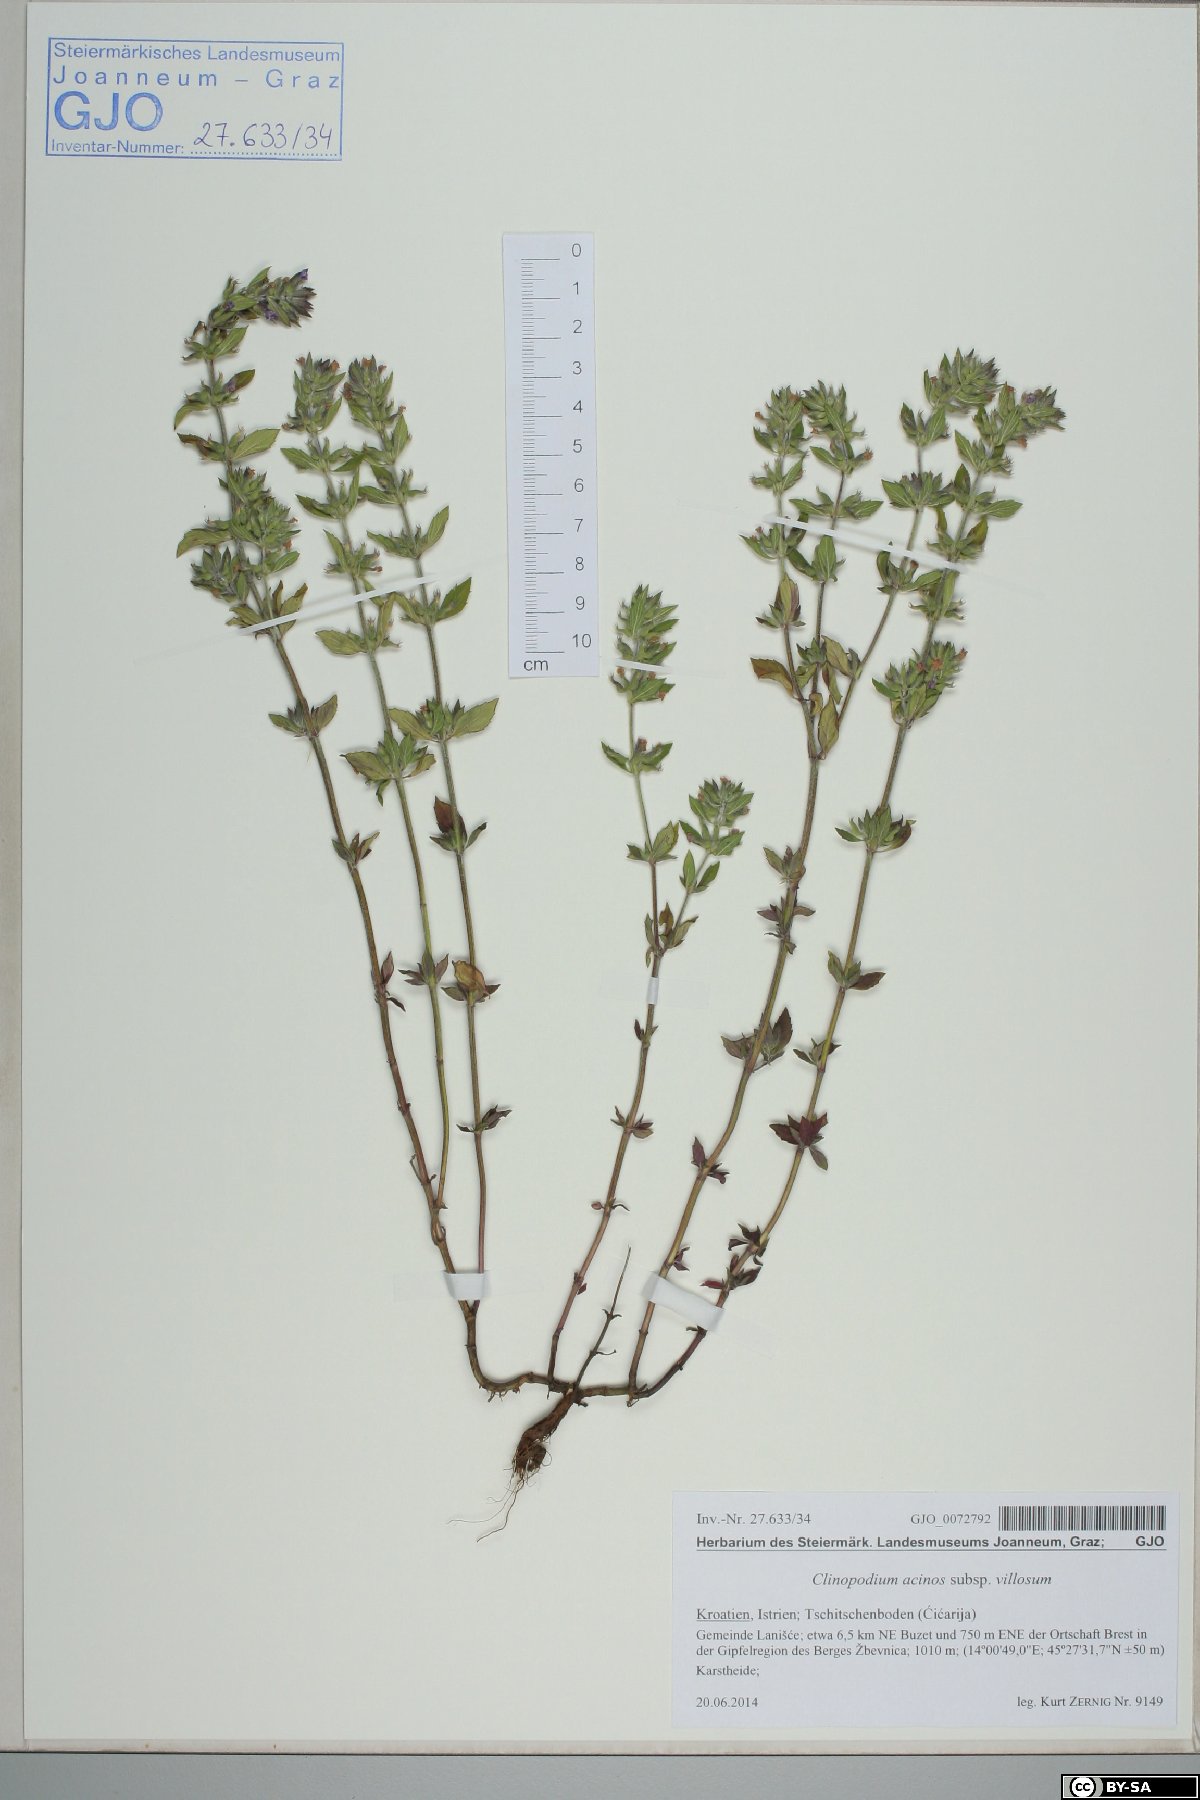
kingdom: Plantae
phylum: Tracheophyta
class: Magnoliopsida
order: Lamiales
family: Lamiaceae
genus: Clinopodium
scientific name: Clinopodium acinos
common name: Basil thyme
